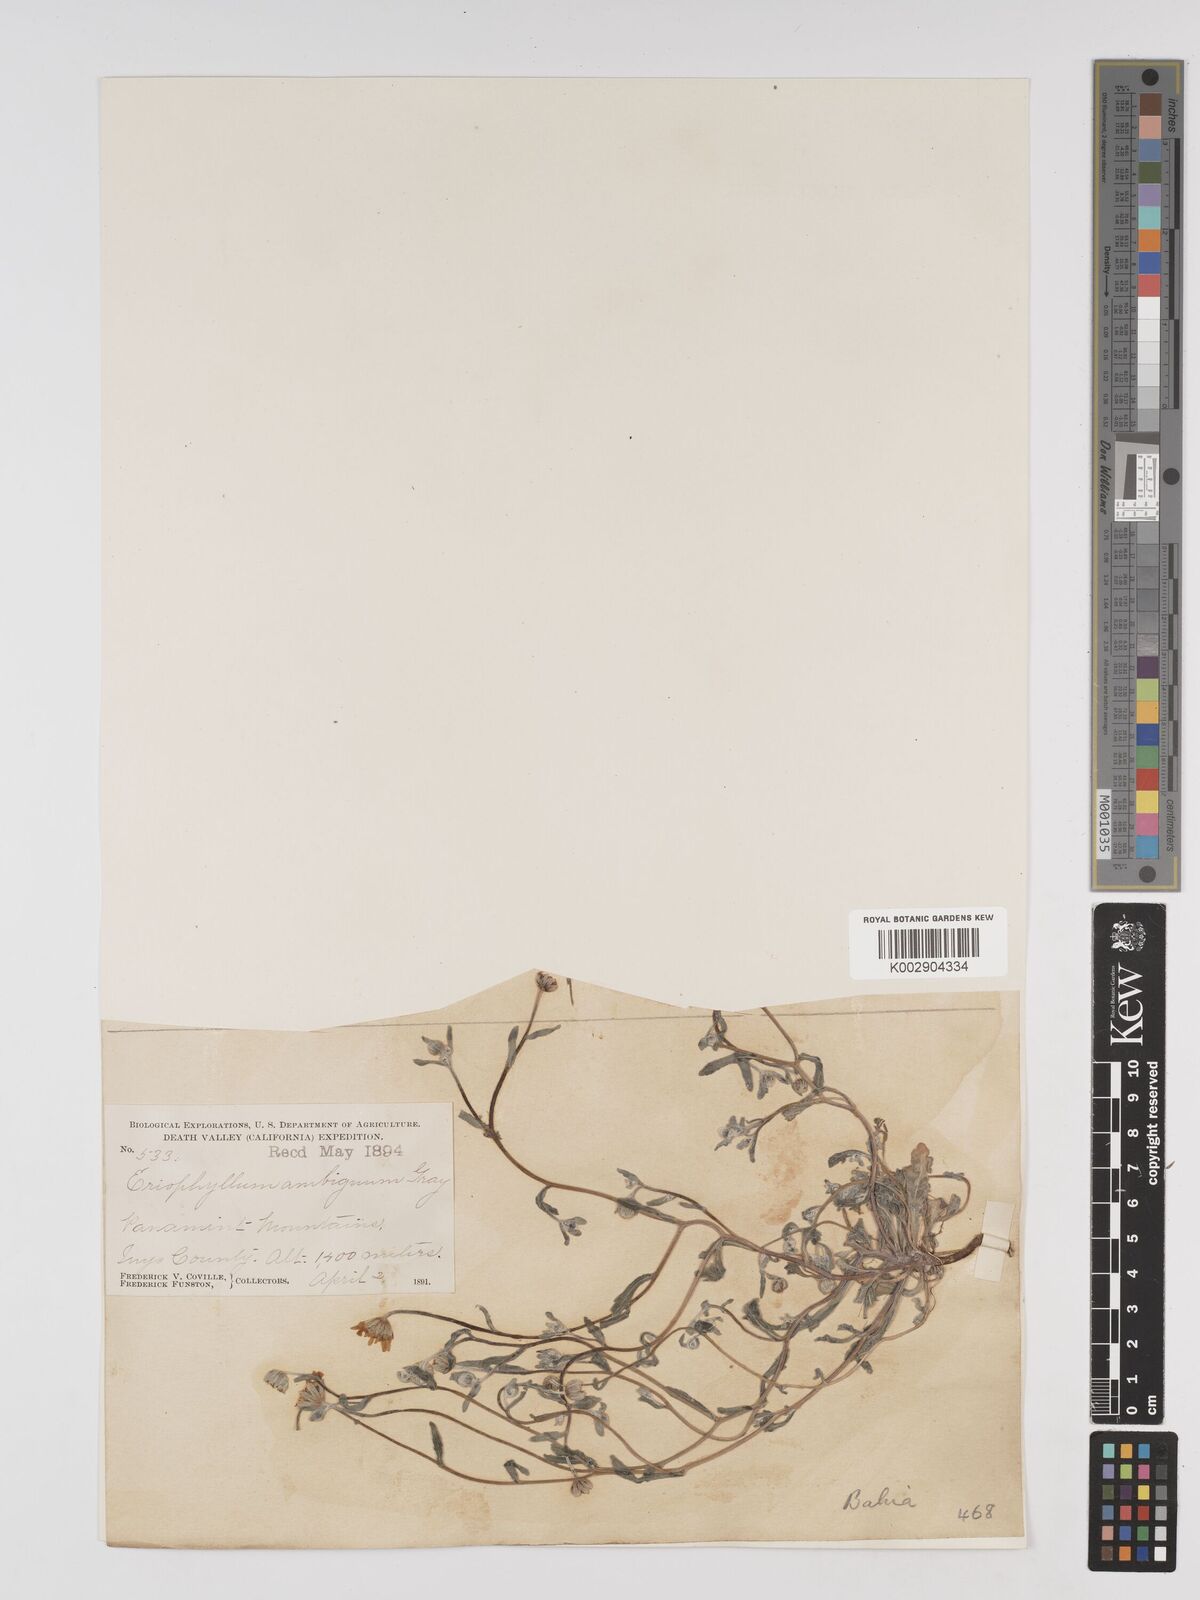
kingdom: Plantae
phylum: Tracheophyta
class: Magnoliopsida
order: Asterales
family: Asteraceae
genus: Eriophyllum
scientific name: Eriophyllum ambiguum
